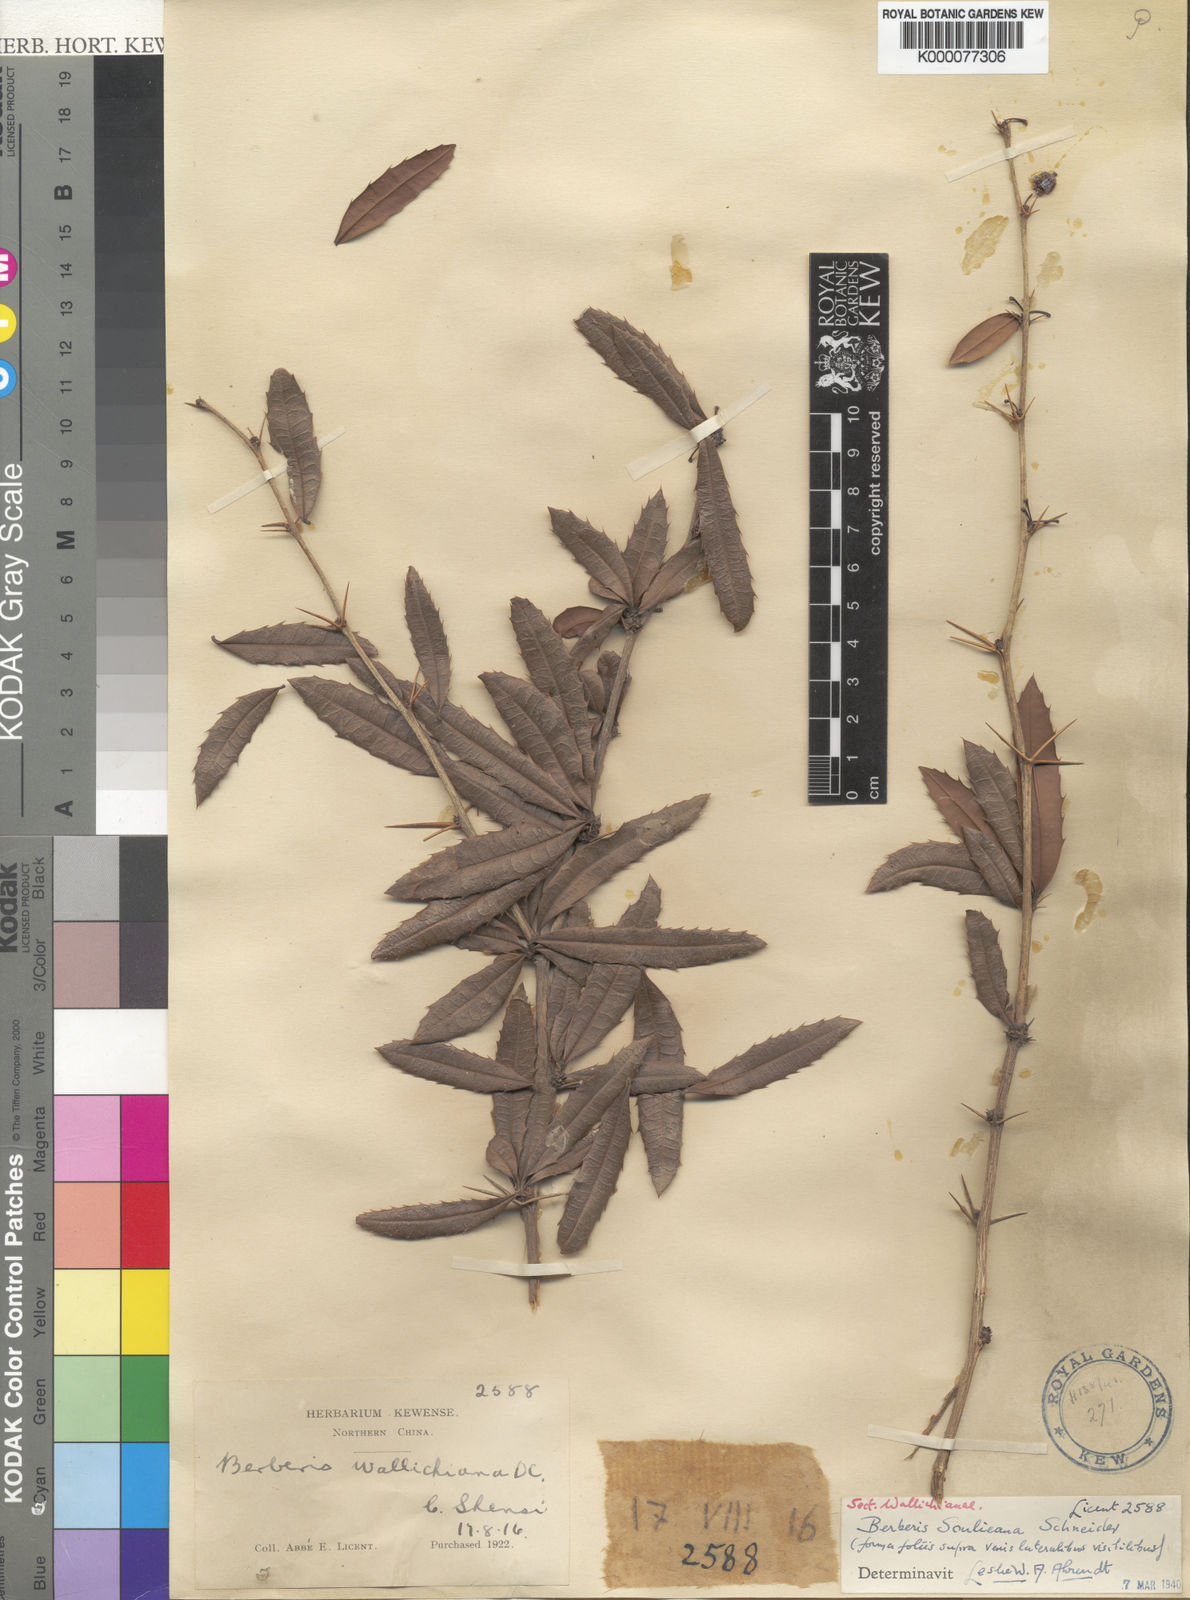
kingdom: Plantae
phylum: Tracheophyta
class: Magnoliopsida
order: Ranunculales
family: Berberidaceae
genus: Berberis
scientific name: Berberis soulieana
